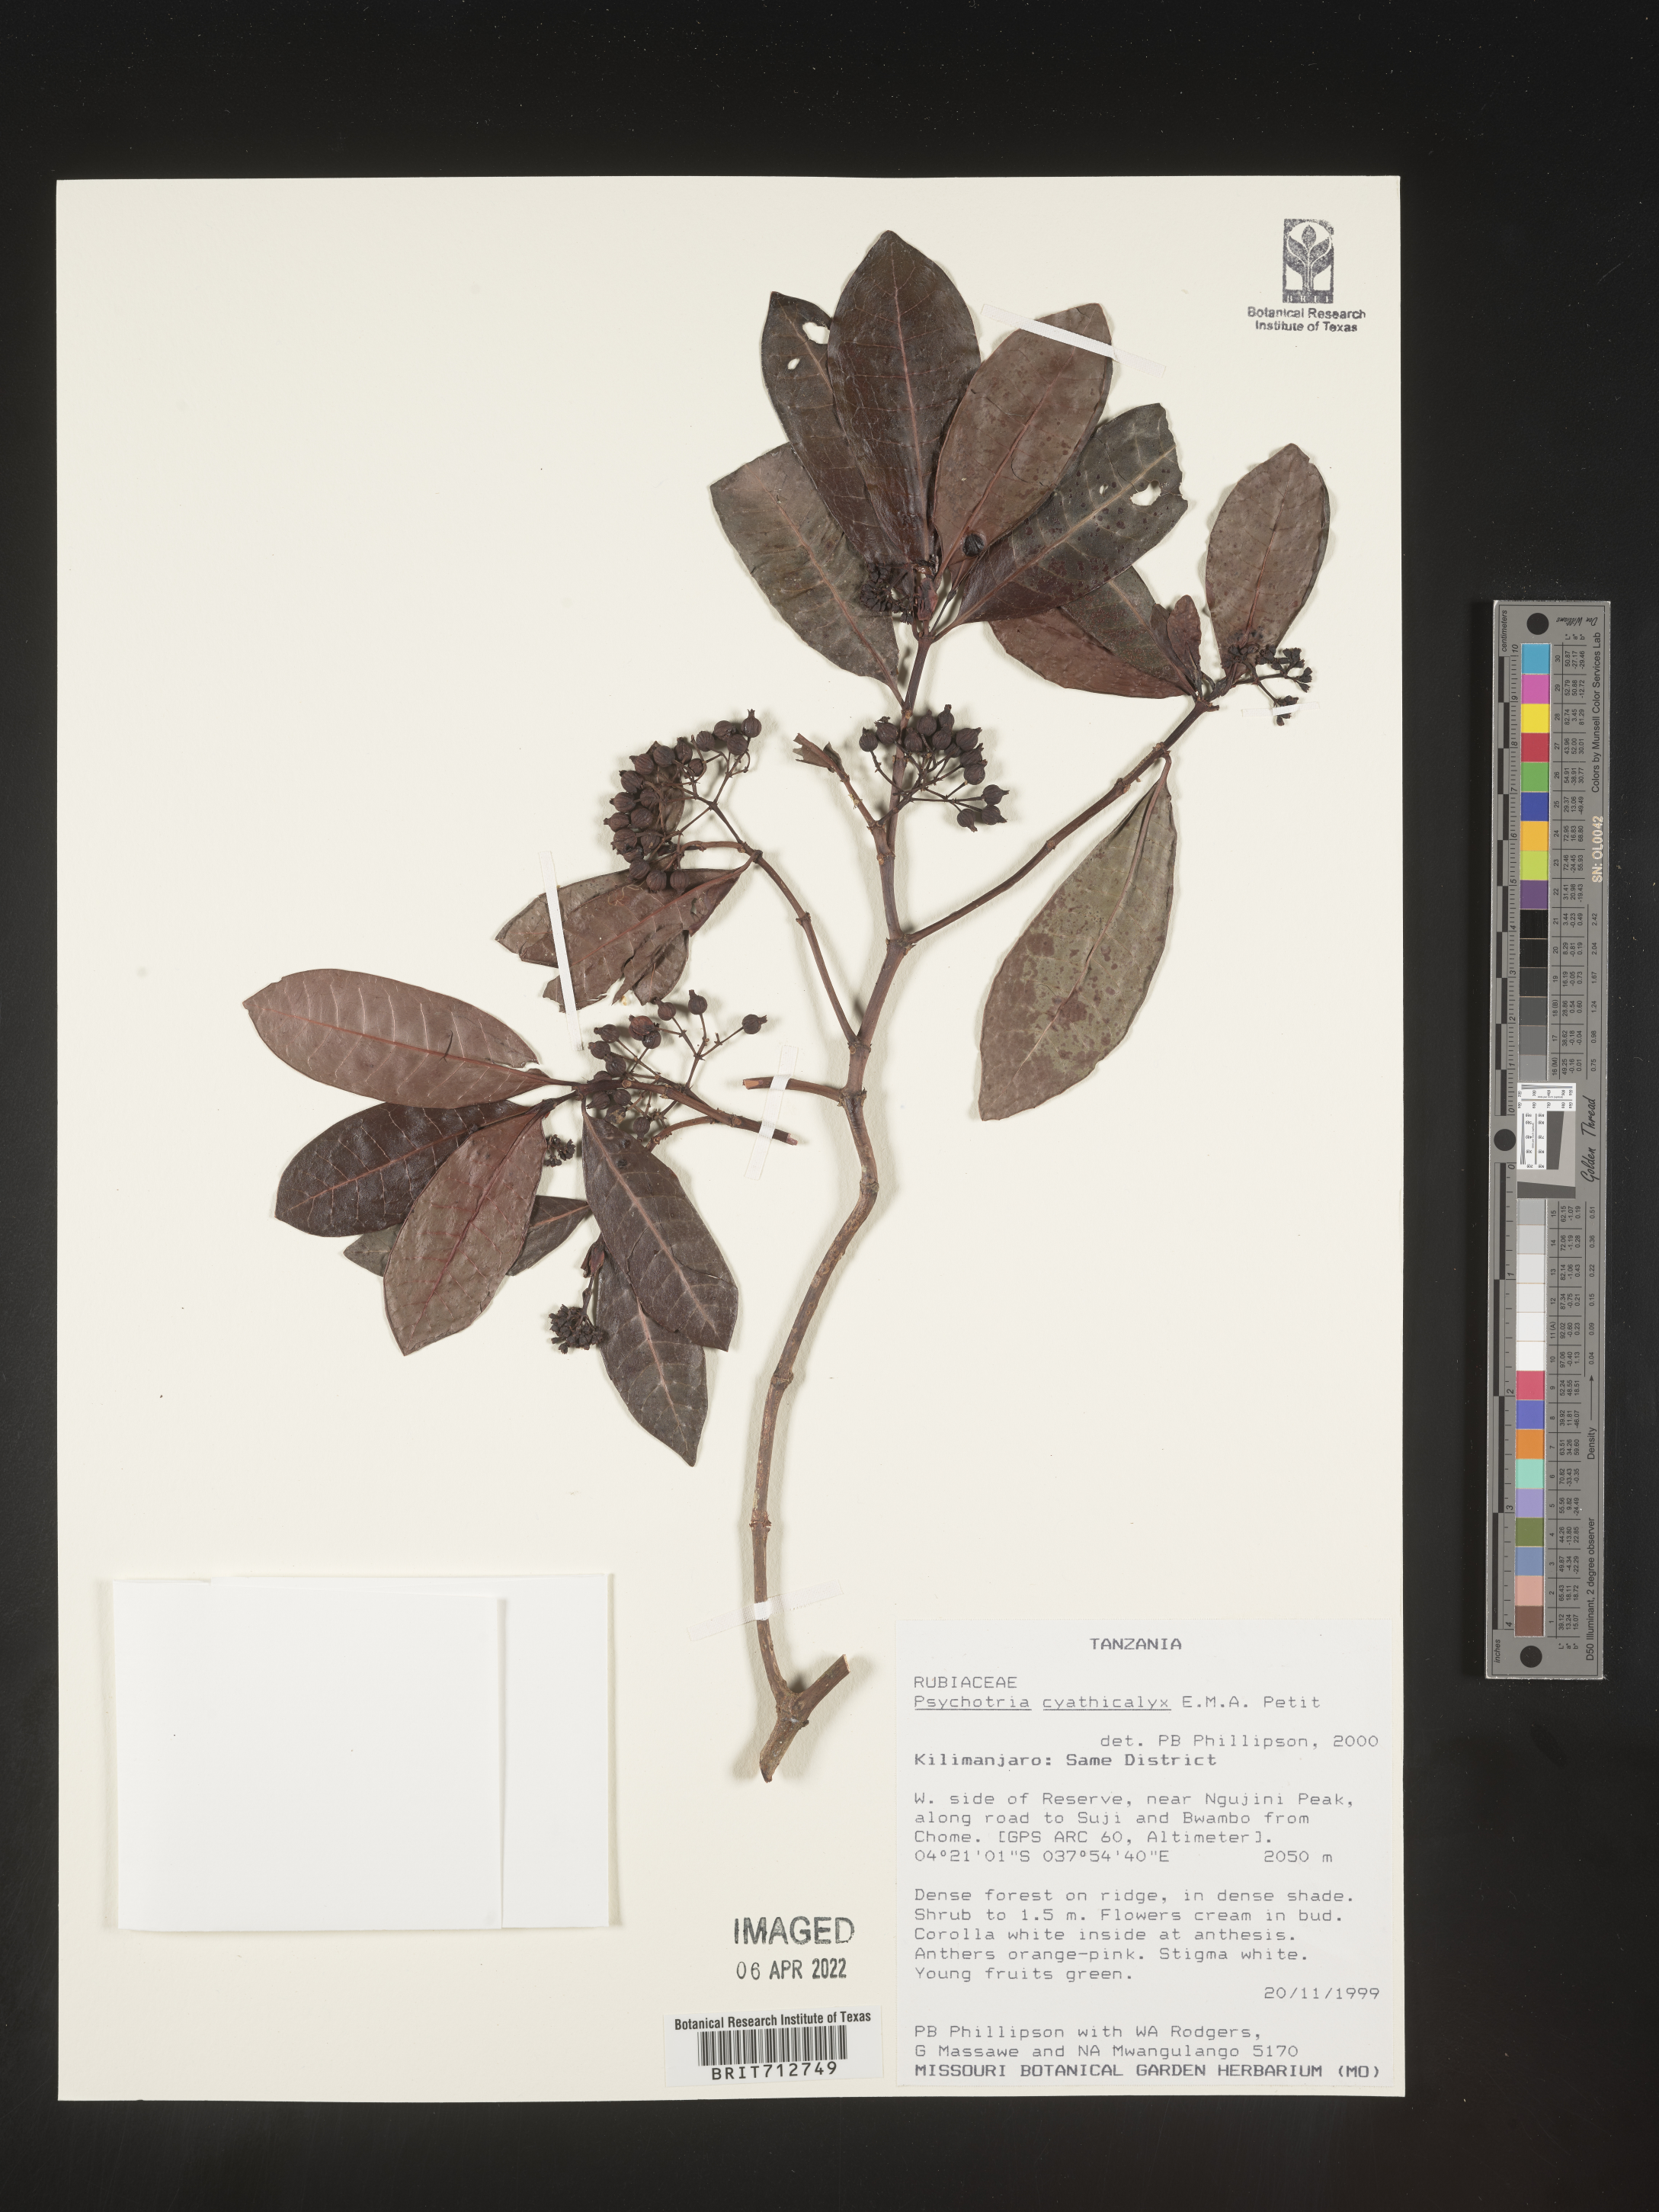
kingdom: Plantae
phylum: Tracheophyta
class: Magnoliopsida
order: Gentianales
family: Rubiaceae
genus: Psychotria
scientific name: Psychotria
